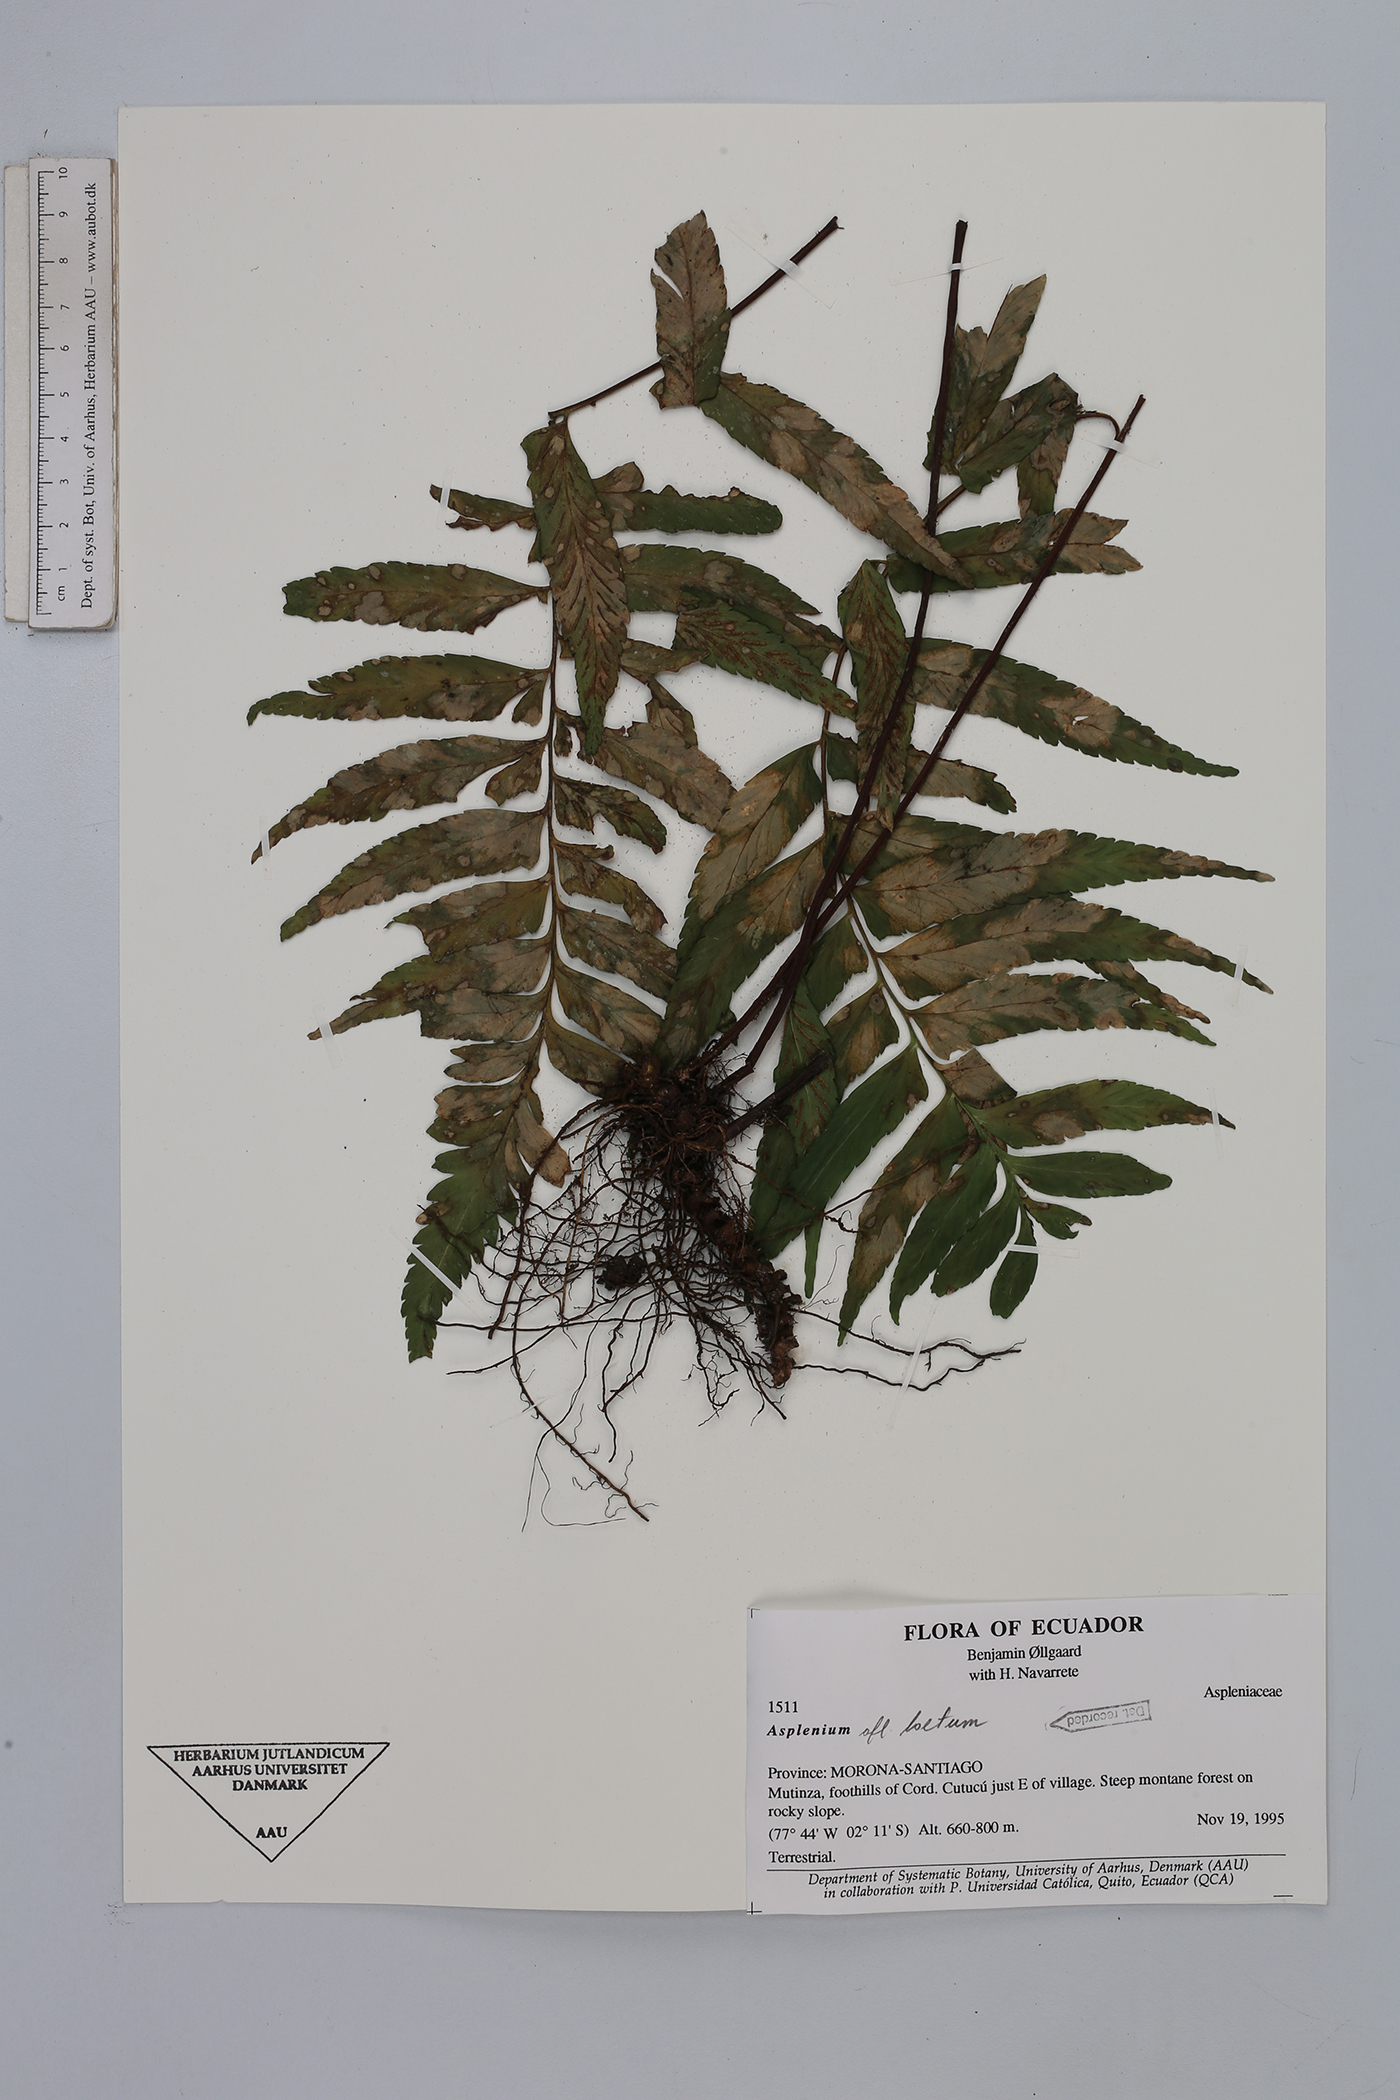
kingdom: Plantae
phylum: Tracheophyta
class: Polypodiopsida
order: Polypodiales
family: Aspleniaceae
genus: Hymenasplenium
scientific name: Hymenasplenium laetum
